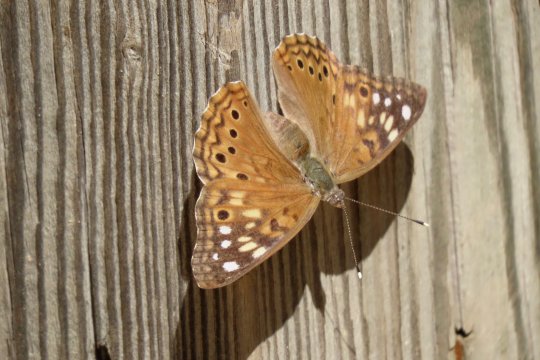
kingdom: Animalia
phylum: Arthropoda
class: Insecta
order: Lepidoptera
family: Nymphalidae
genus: Asterocampa
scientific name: Asterocampa celtis
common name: Hackberry Emperor
